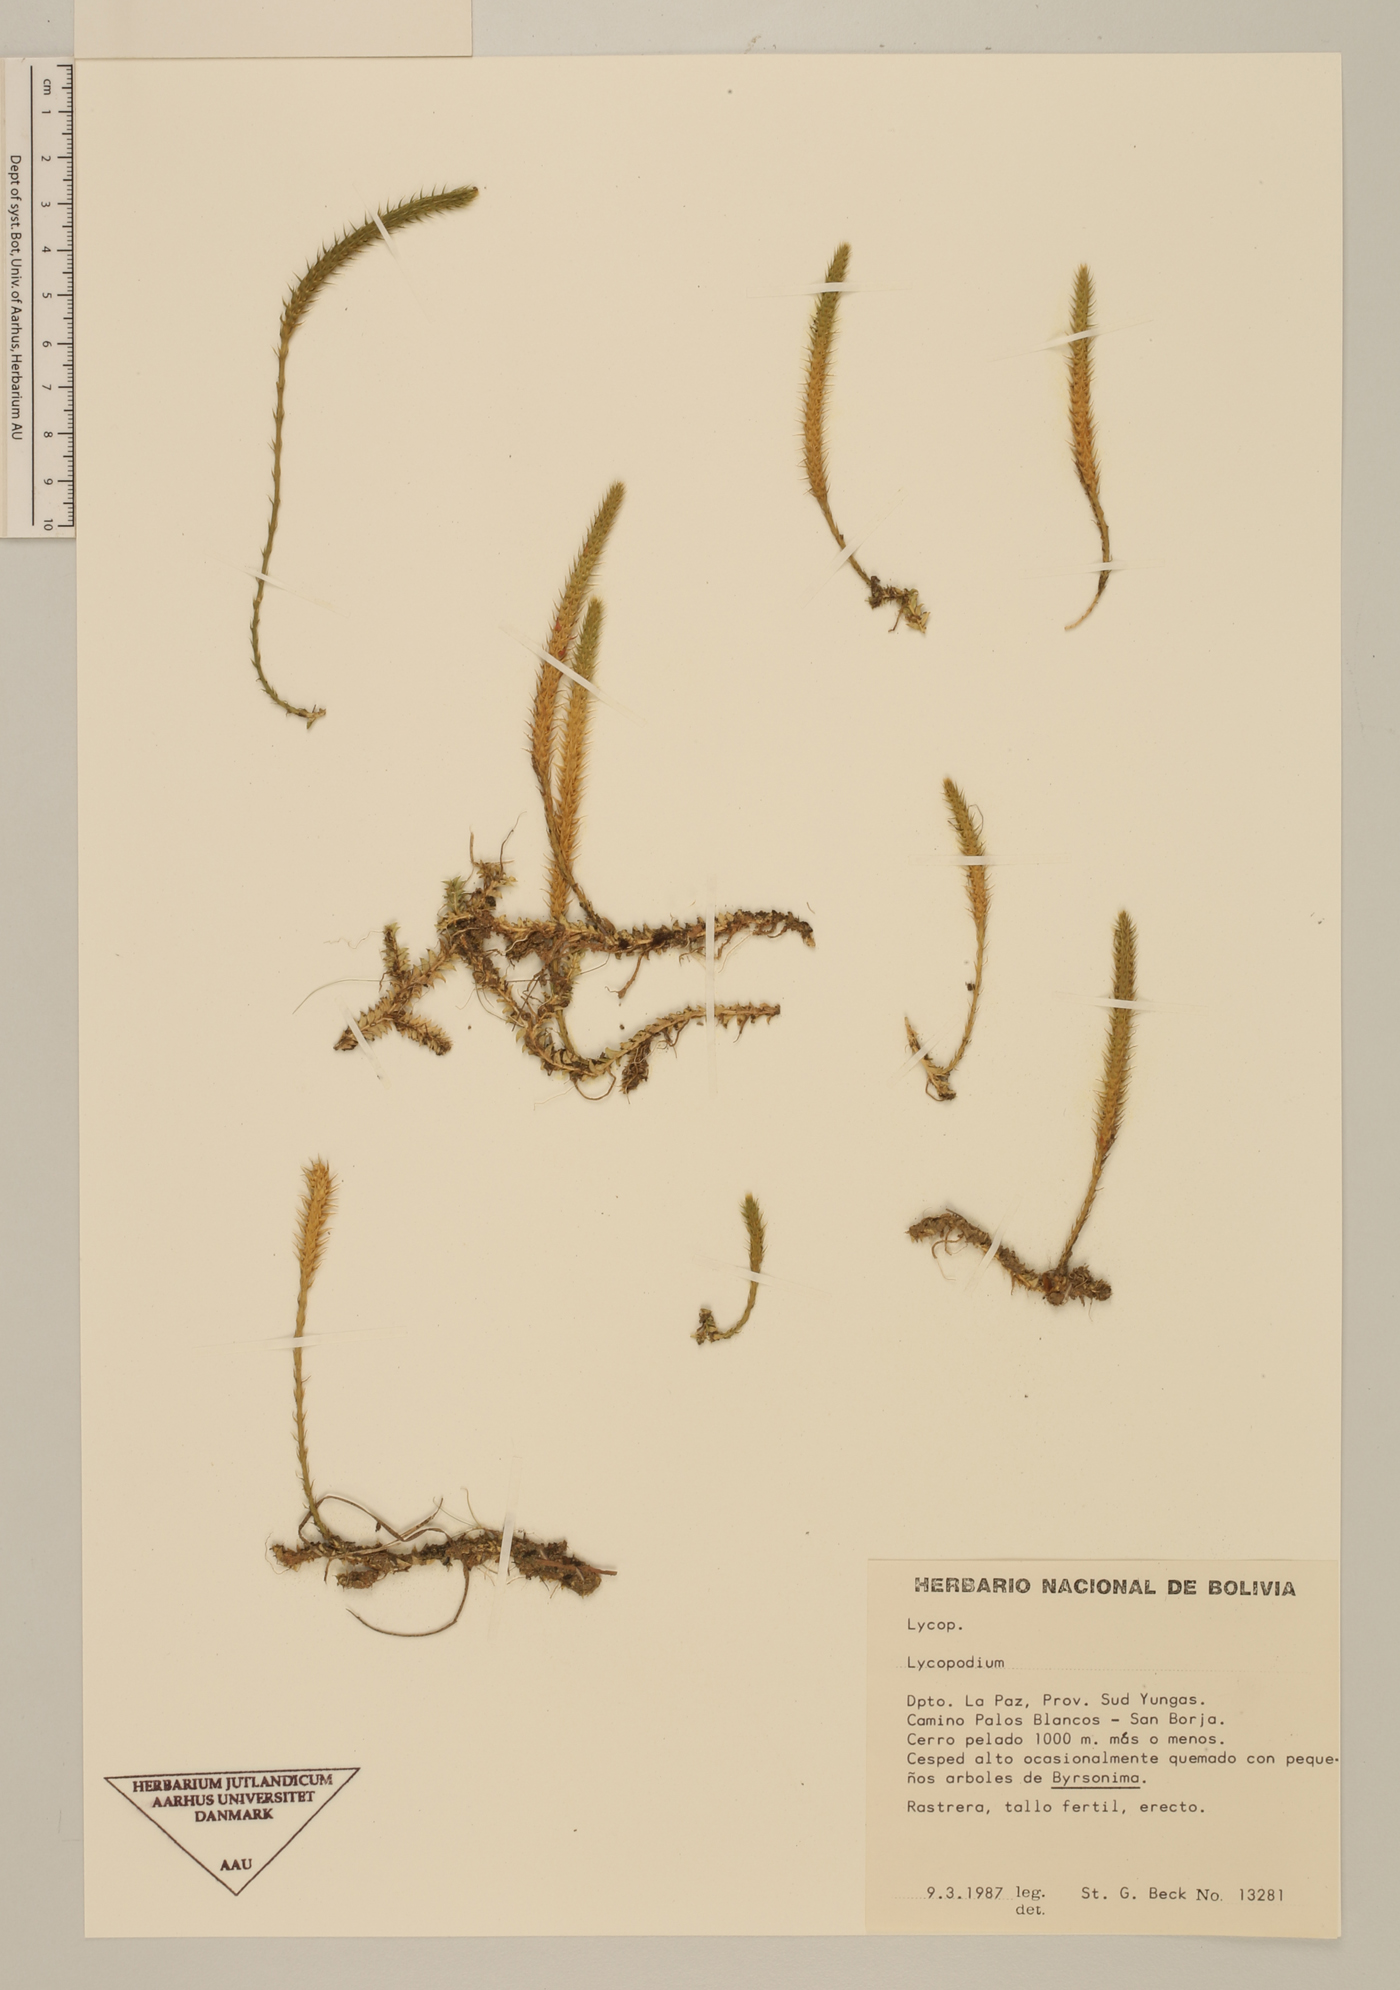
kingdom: Plantae
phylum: Tracheophyta
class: Lycopodiopsida
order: Lycopodiales
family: Lycopodiaceae
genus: Pseudolycopodiella
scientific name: Pseudolycopodiella paradoxa
